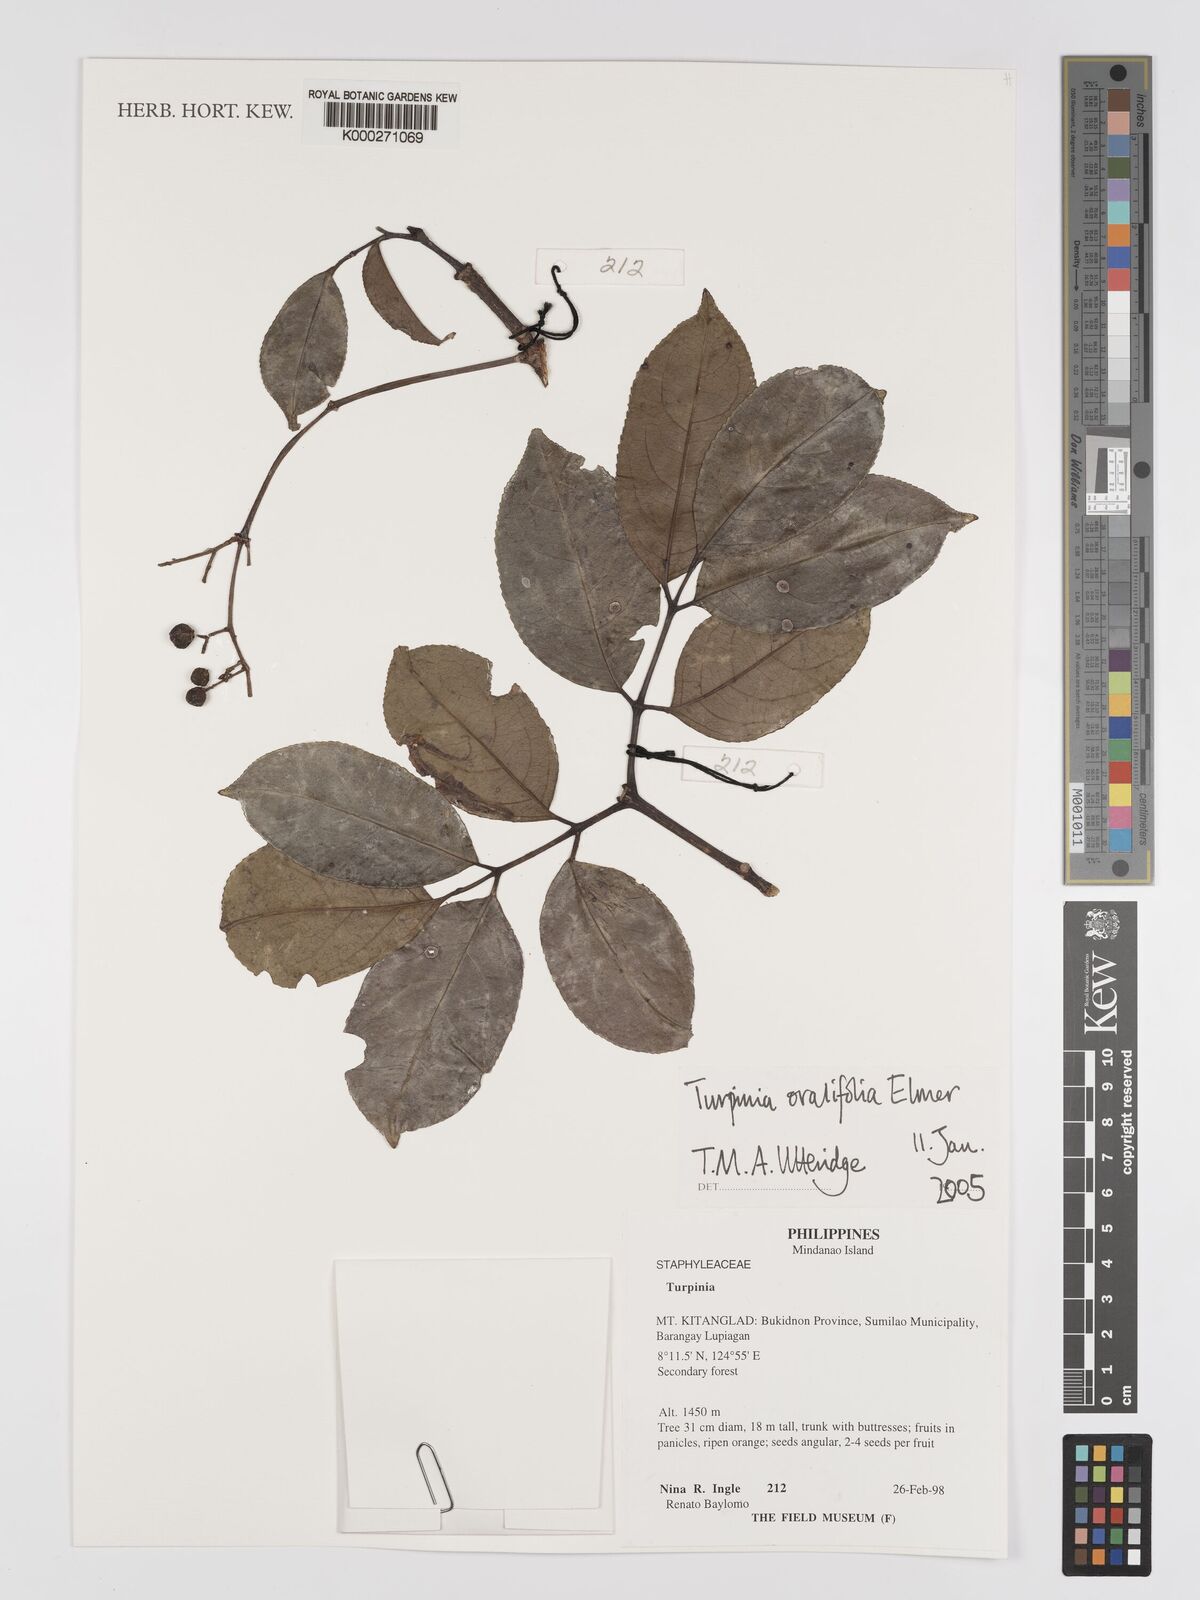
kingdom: Plantae
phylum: Tracheophyta
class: Magnoliopsida
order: Crossosomatales
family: Staphyleaceae
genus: Dalrympelea
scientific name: Dalrympelea trifoliata
